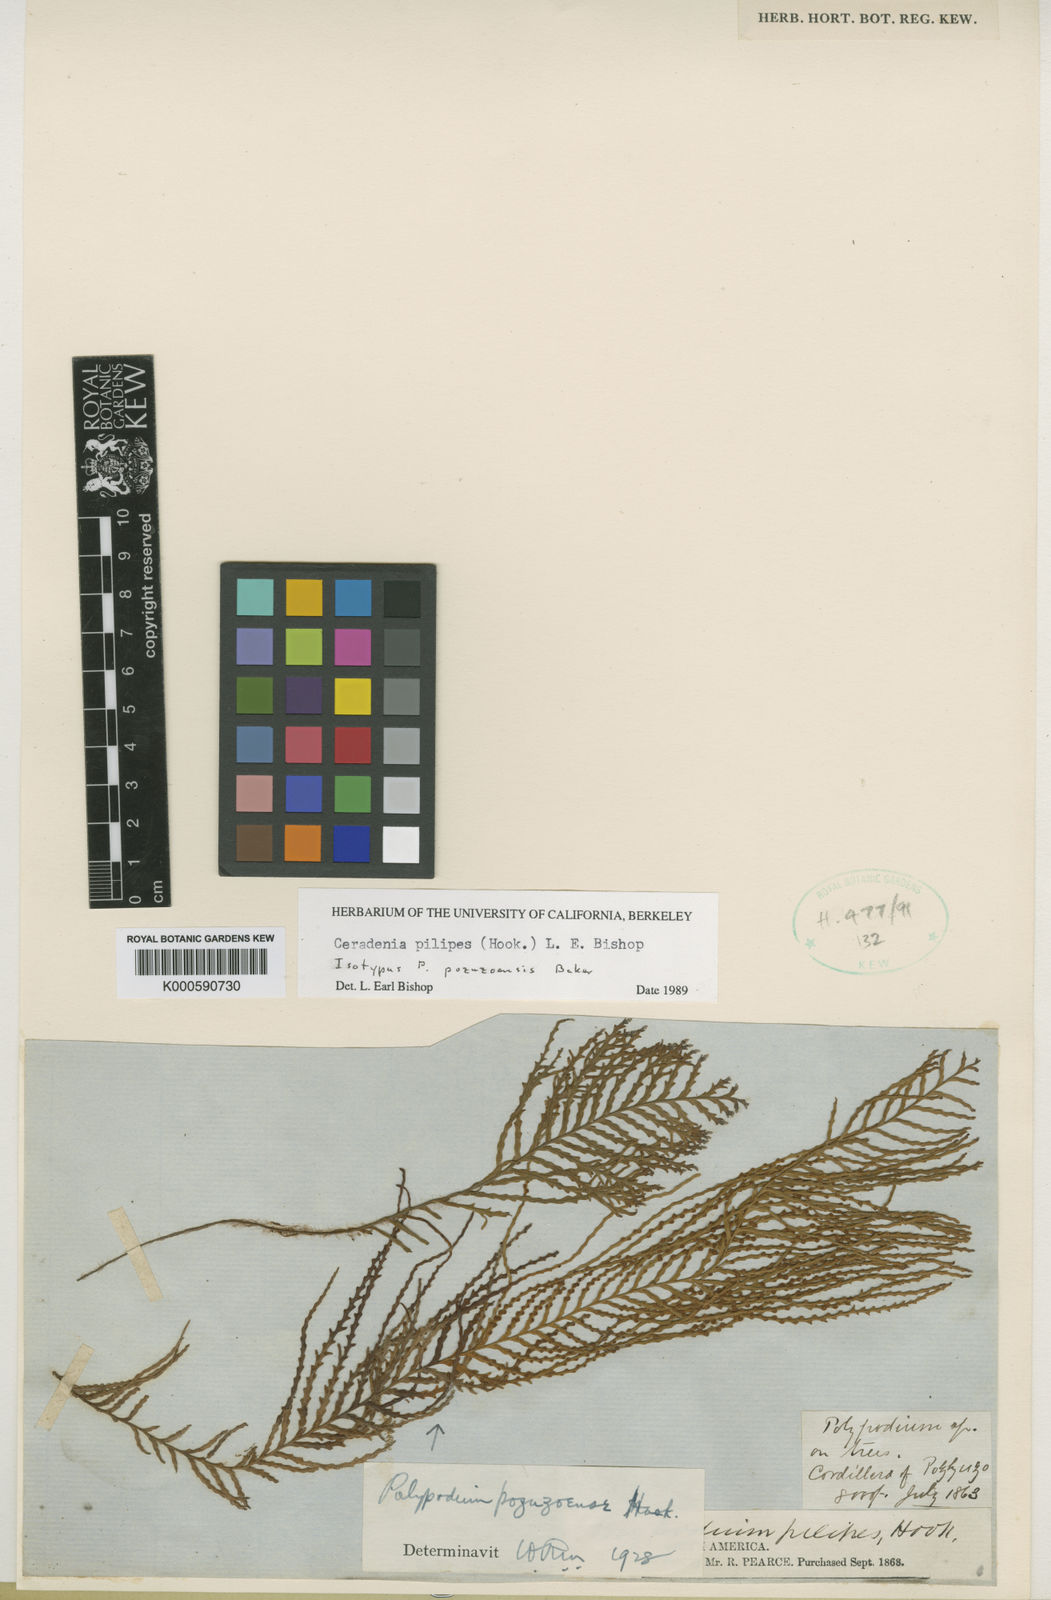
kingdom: Plantae
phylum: Tracheophyta
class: Polypodiopsida
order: Polypodiales
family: Polypodiaceae
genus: Ceradenia
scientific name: Ceradenia pilipes
